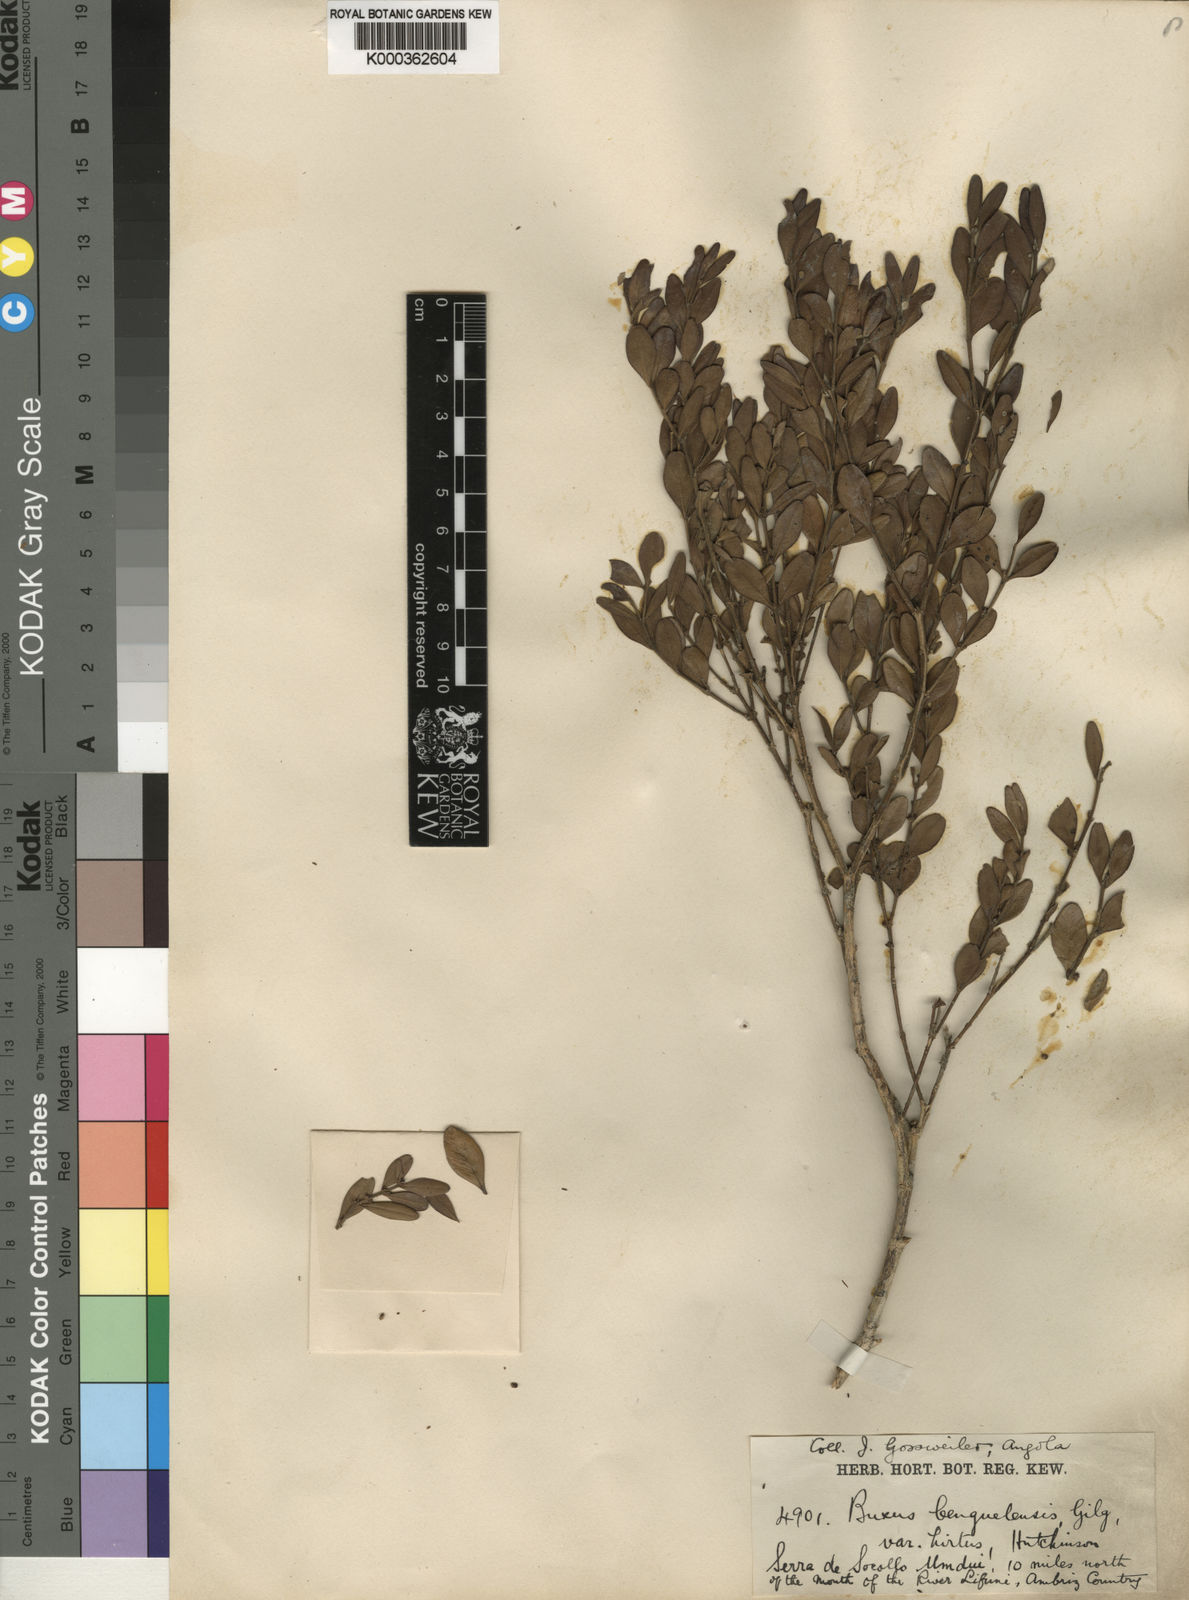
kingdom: Plantae
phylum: Tracheophyta
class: Magnoliopsida
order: Buxales
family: Buxaceae
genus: Buxus
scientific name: Buxus benguellensis
